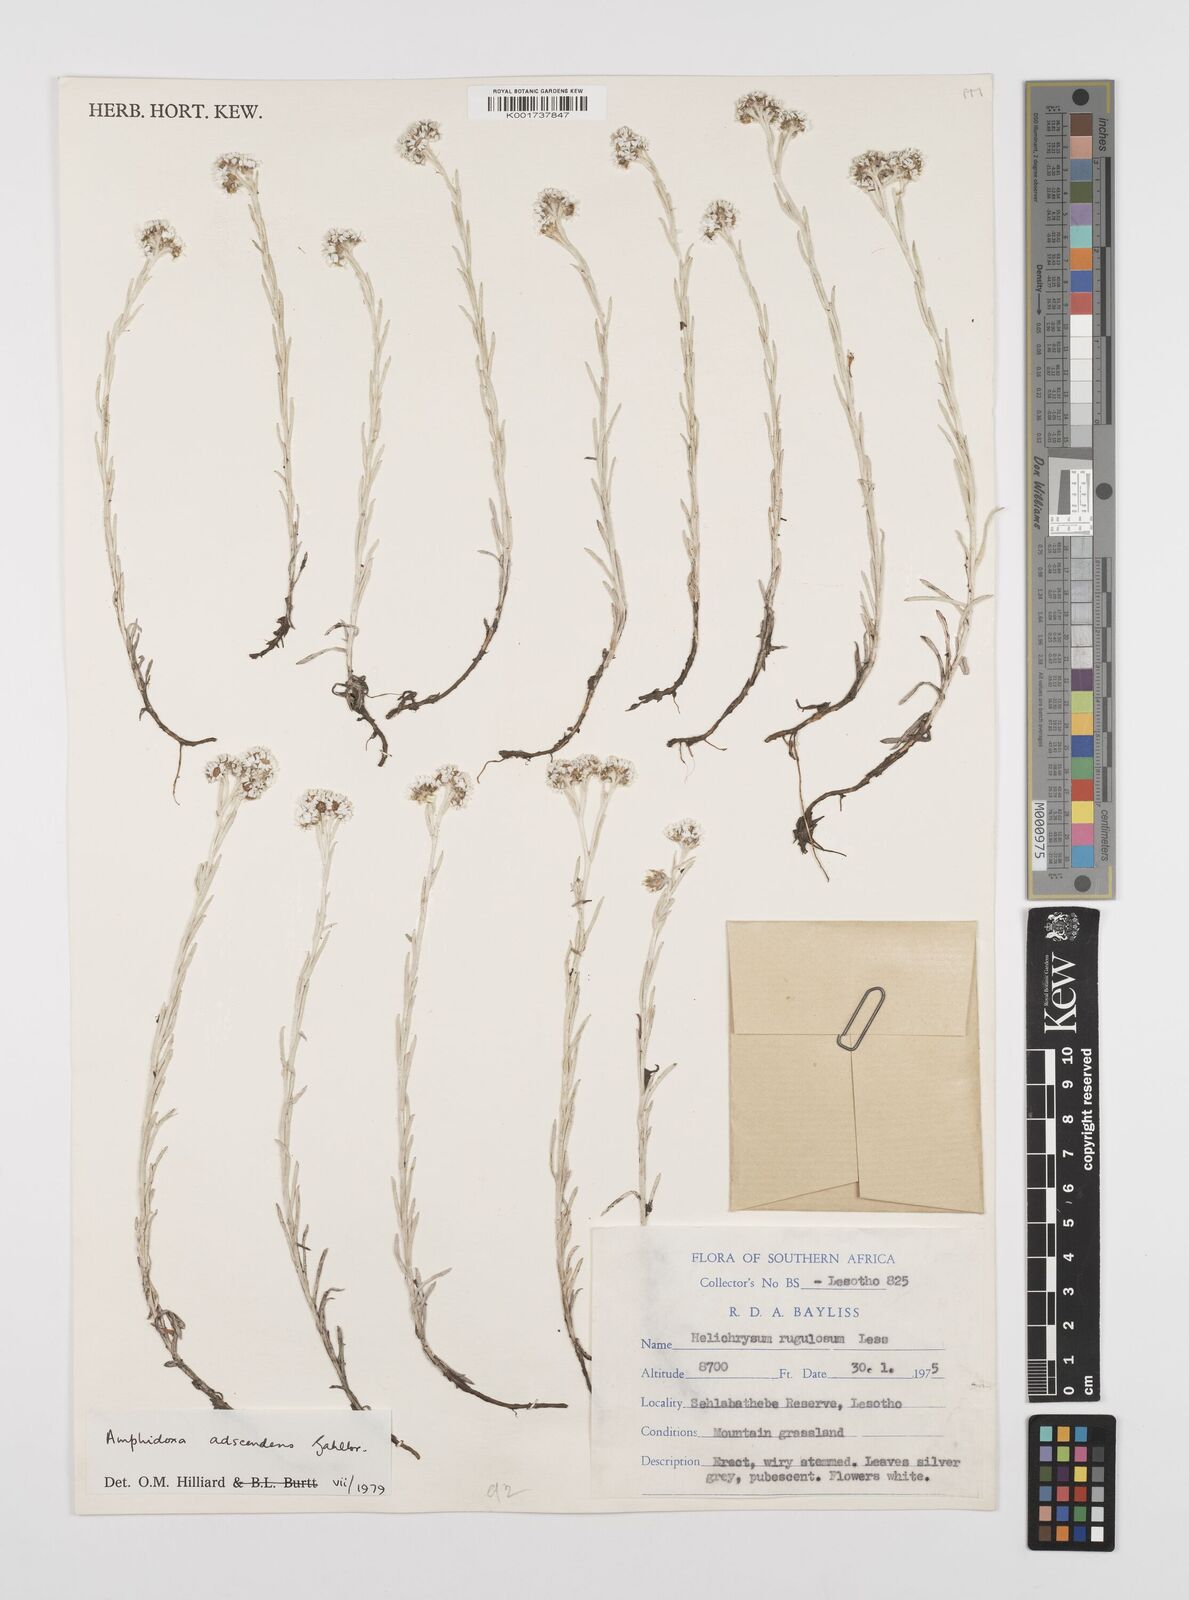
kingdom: Plantae
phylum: Tracheophyta
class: Magnoliopsida
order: Asterales
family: Asteraceae
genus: Helichrysum
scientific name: Helichrysum rugulosum
